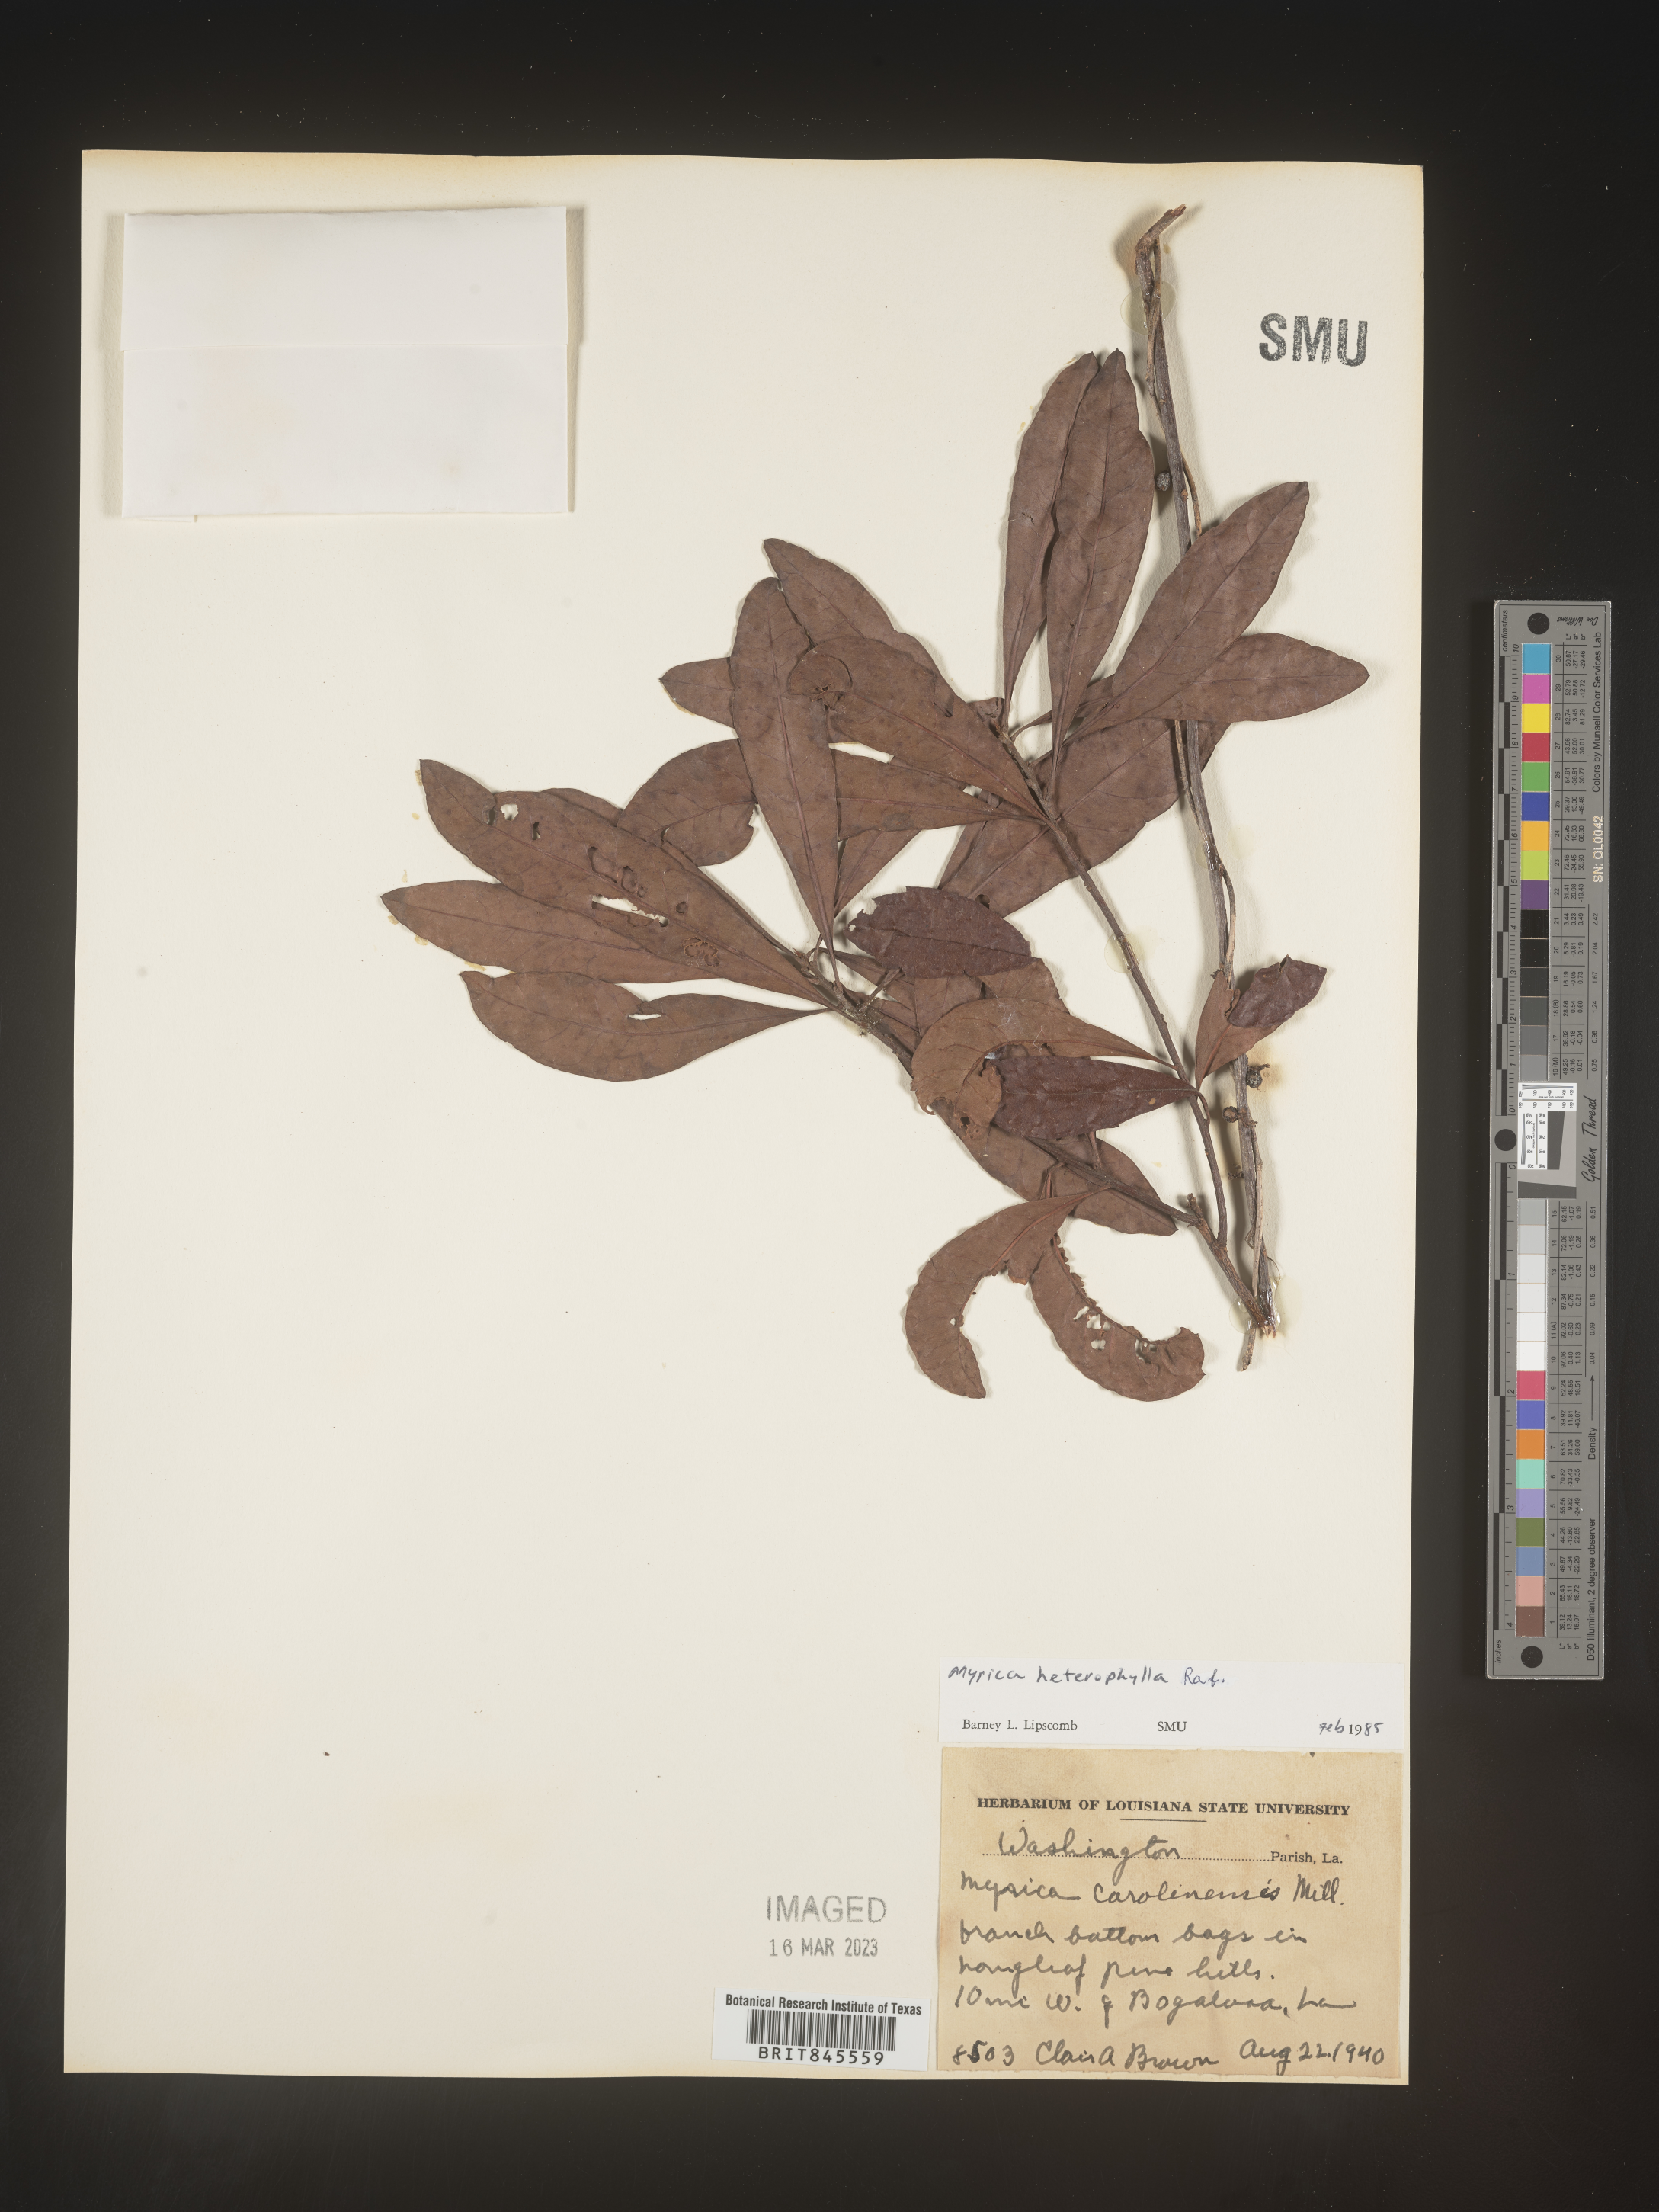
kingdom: Plantae
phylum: Tracheophyta
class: Magnoliopsida
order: Fagales
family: Myricaceae
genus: Morella
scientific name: Morella caroliniensis
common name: Evergreen bayberry
